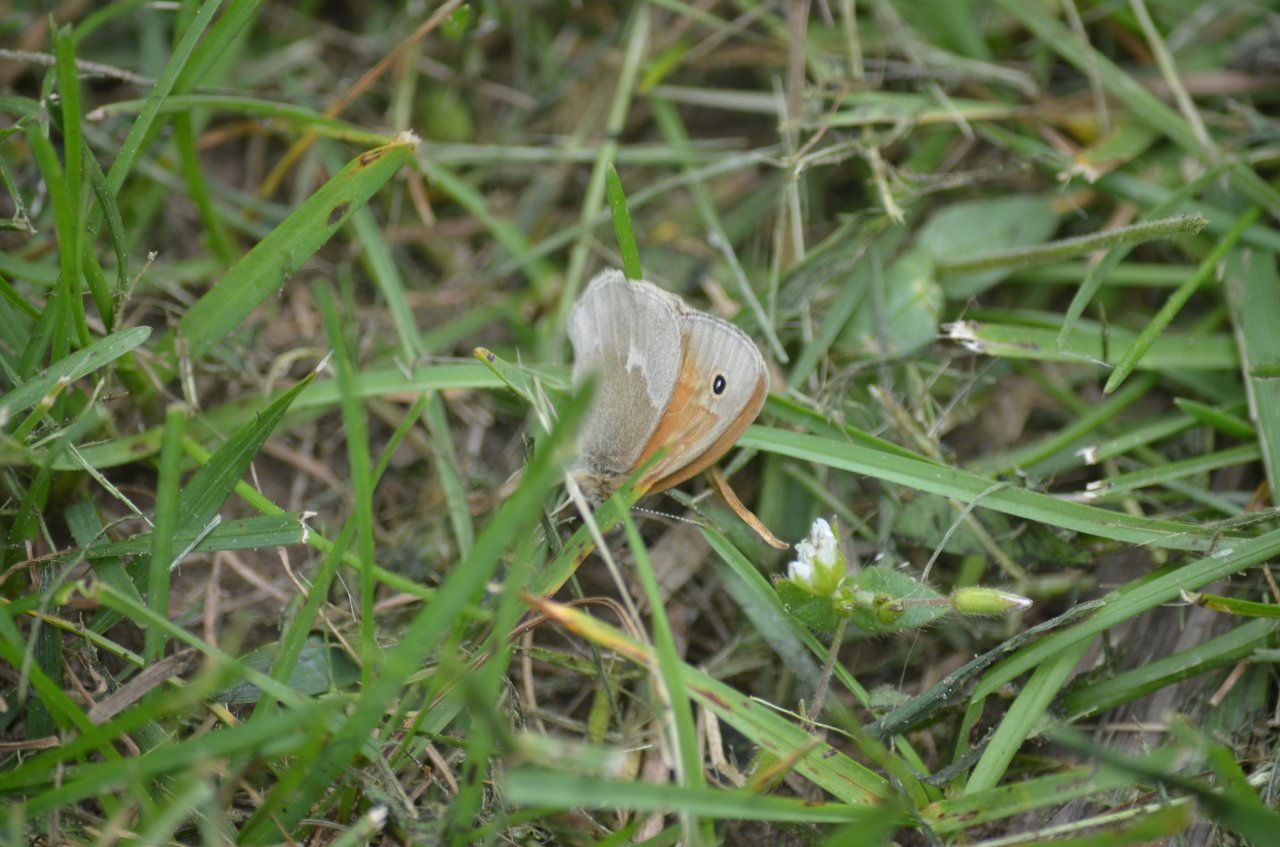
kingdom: Animalia
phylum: Arthropoda
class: Insecta
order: Lepidoptera
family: Nymphalidae
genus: Coenonympha
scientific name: Coenonympha tullia
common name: Large Heath
